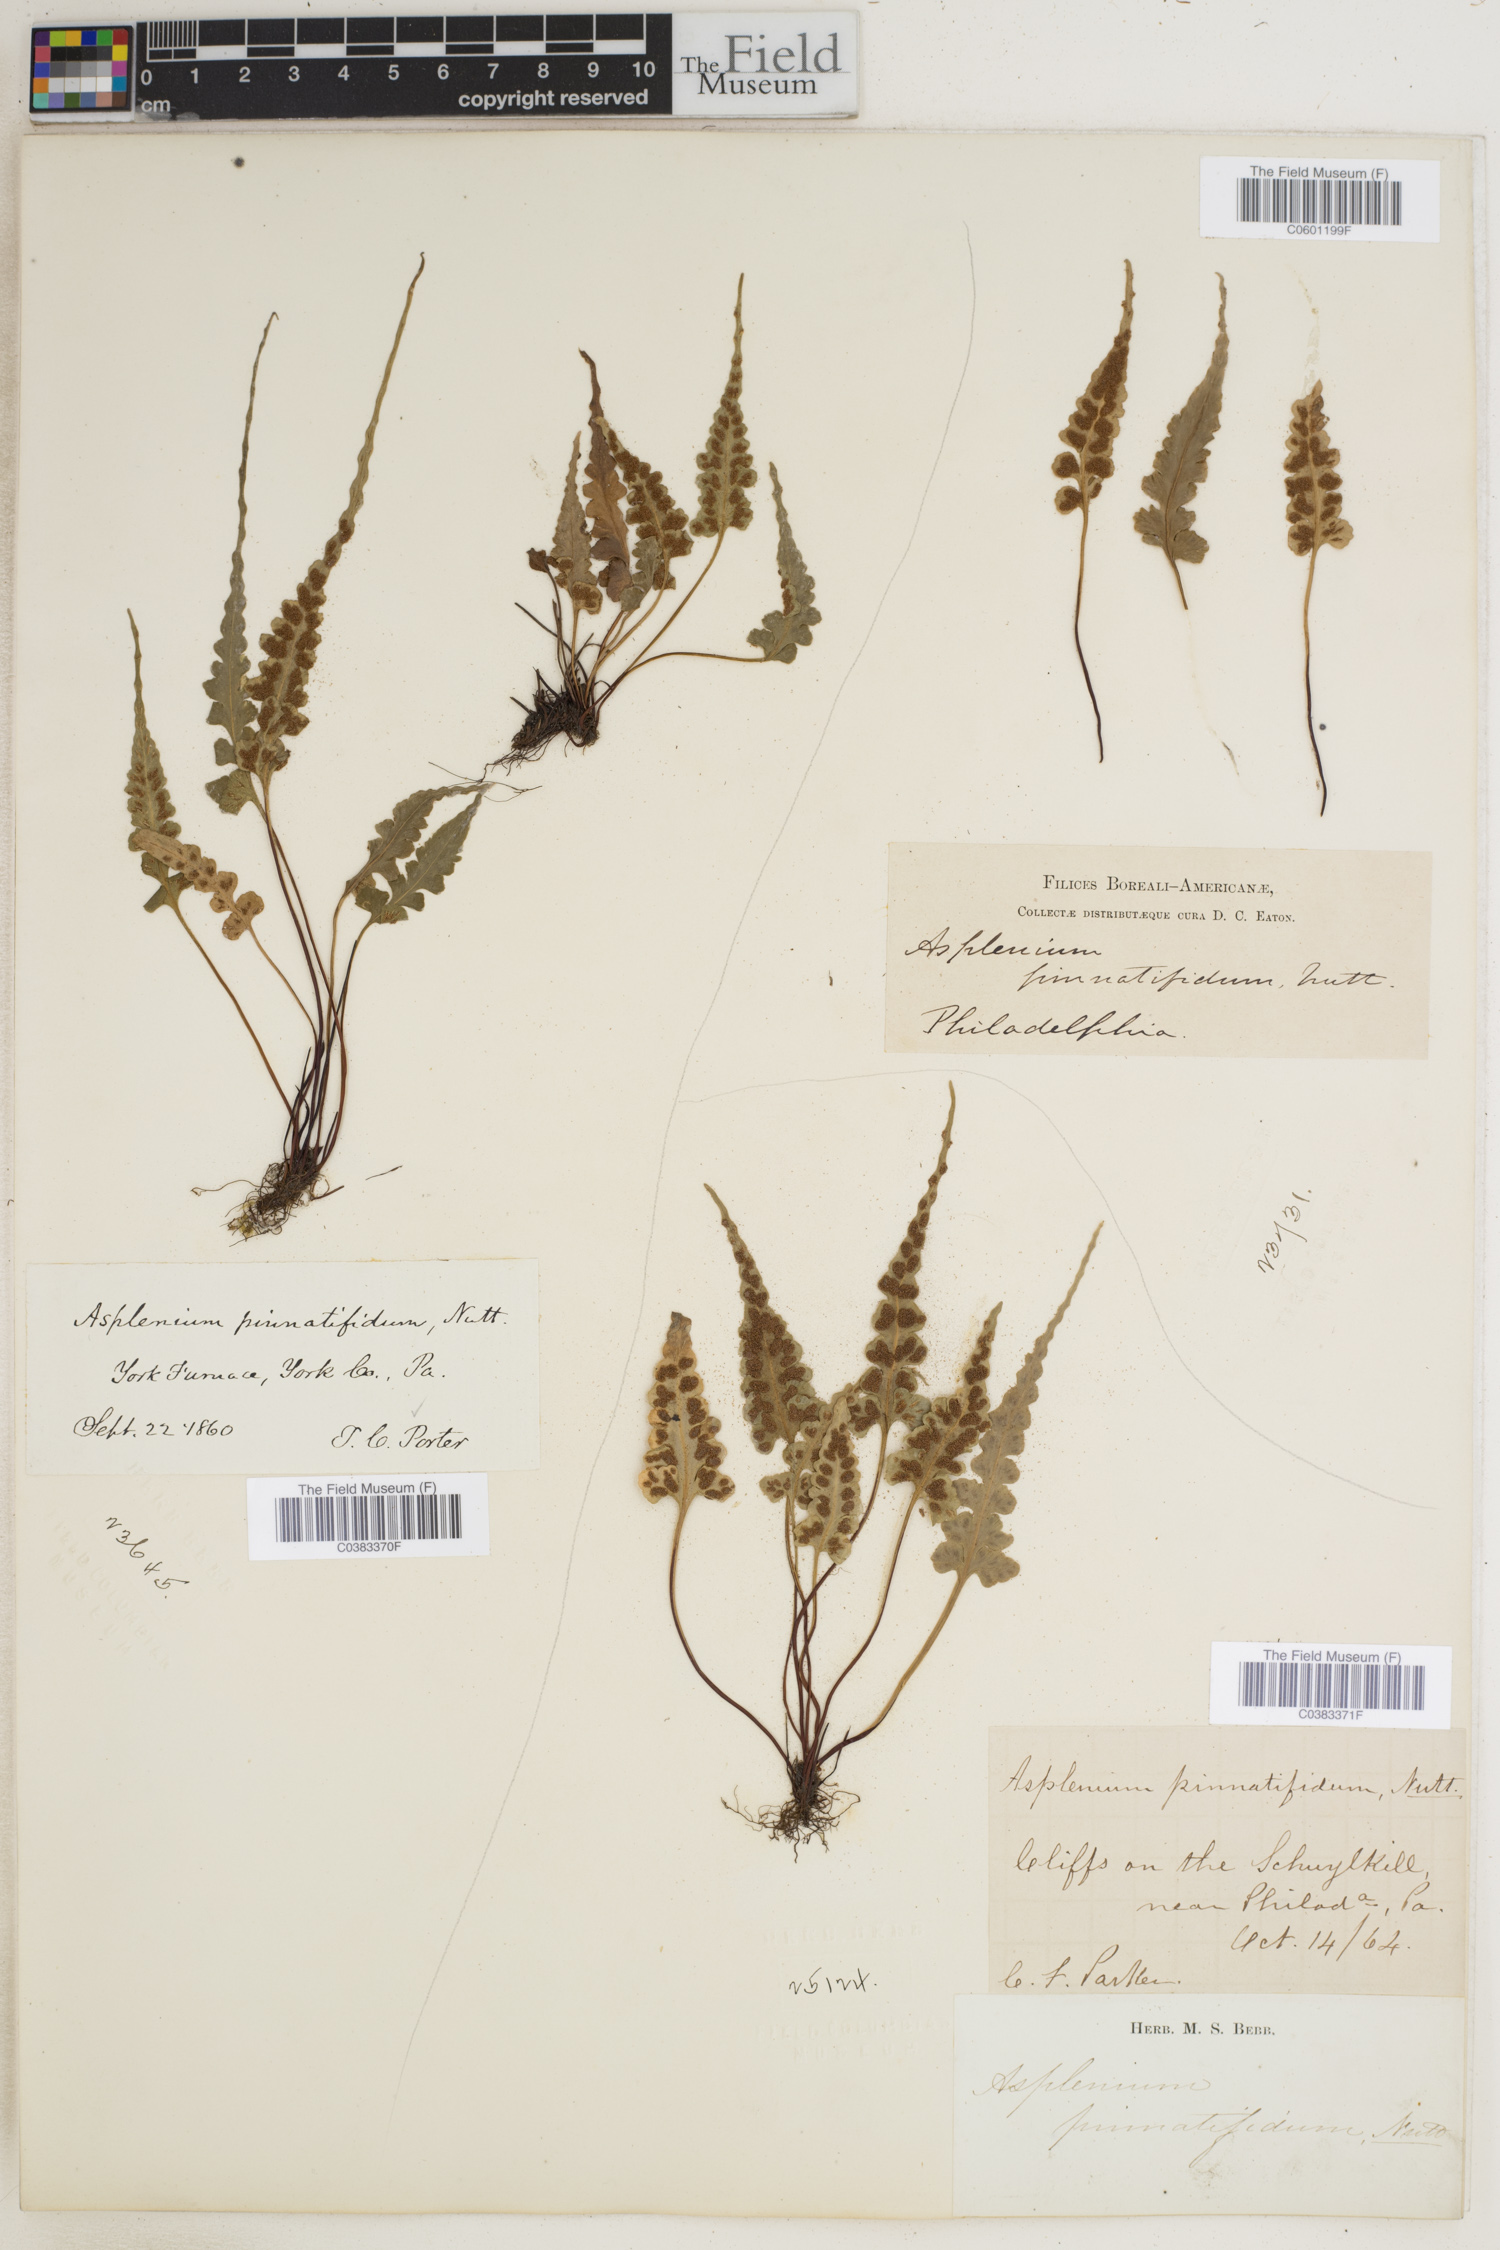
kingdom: Plantae
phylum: Tracheophyta
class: Polypodiopsida
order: Polypodiales
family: Aspleniaceae
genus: Asplenium
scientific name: Asplenium pinnatifidum
